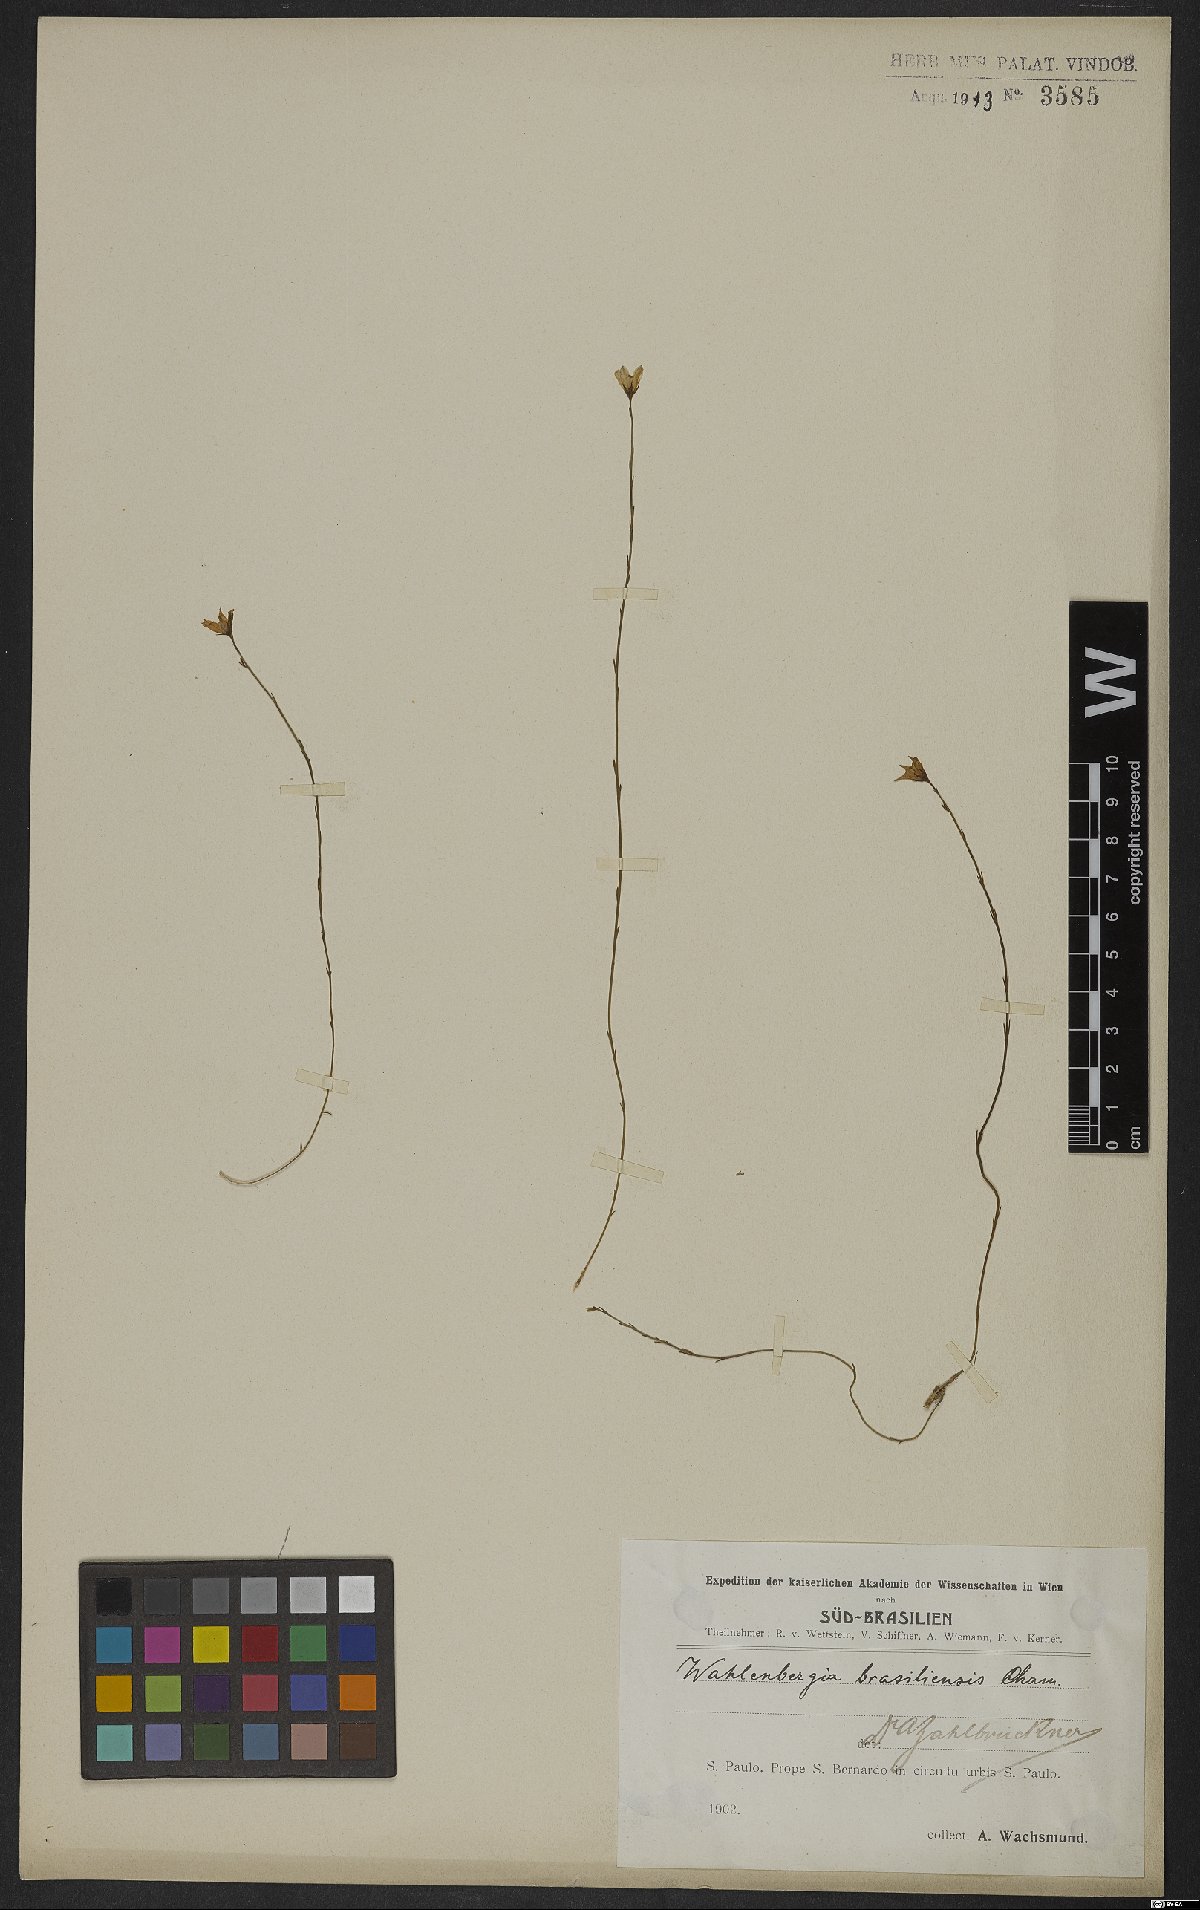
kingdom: Plantae
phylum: Tracheophyta
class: Magnoliopsida
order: Asterales
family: Campanulaceae
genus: Wahlenbergia
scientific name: Wahlenbergia brasiliensis
